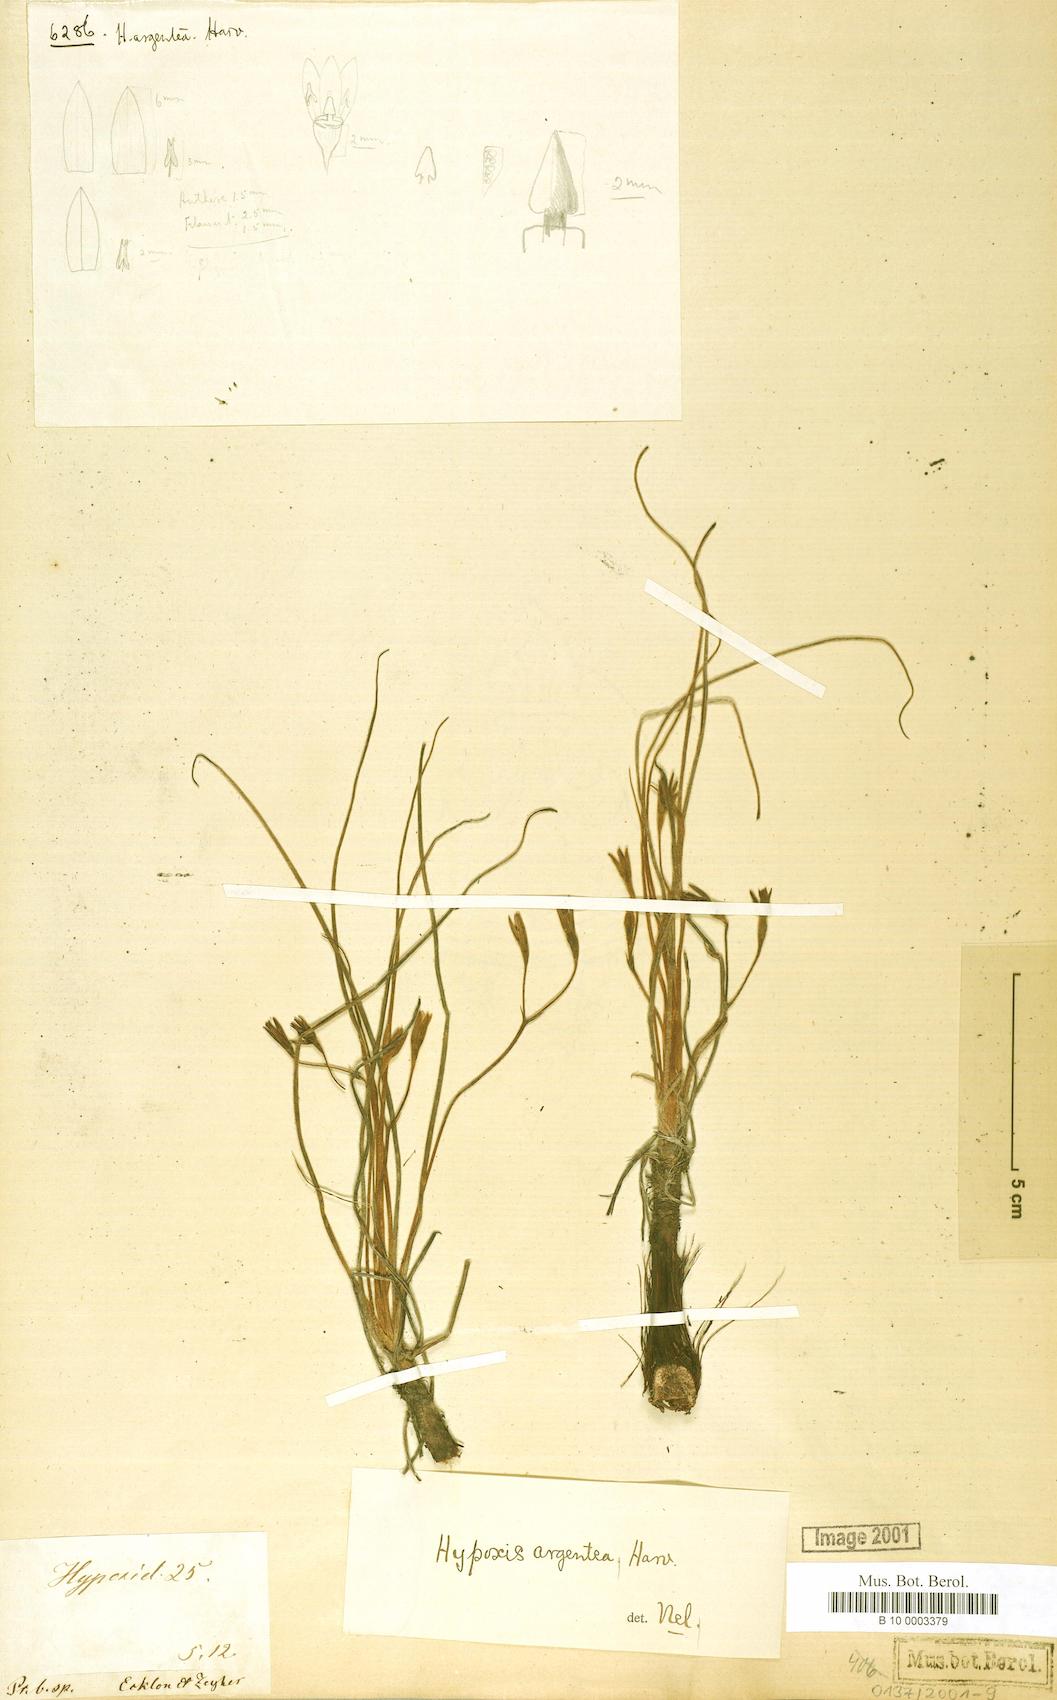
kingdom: Plantae
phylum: Tracheophyta
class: Liliopsida
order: Asparagales
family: Hypoxidaceae
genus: Hypoxis
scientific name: Hypoxis argentea
